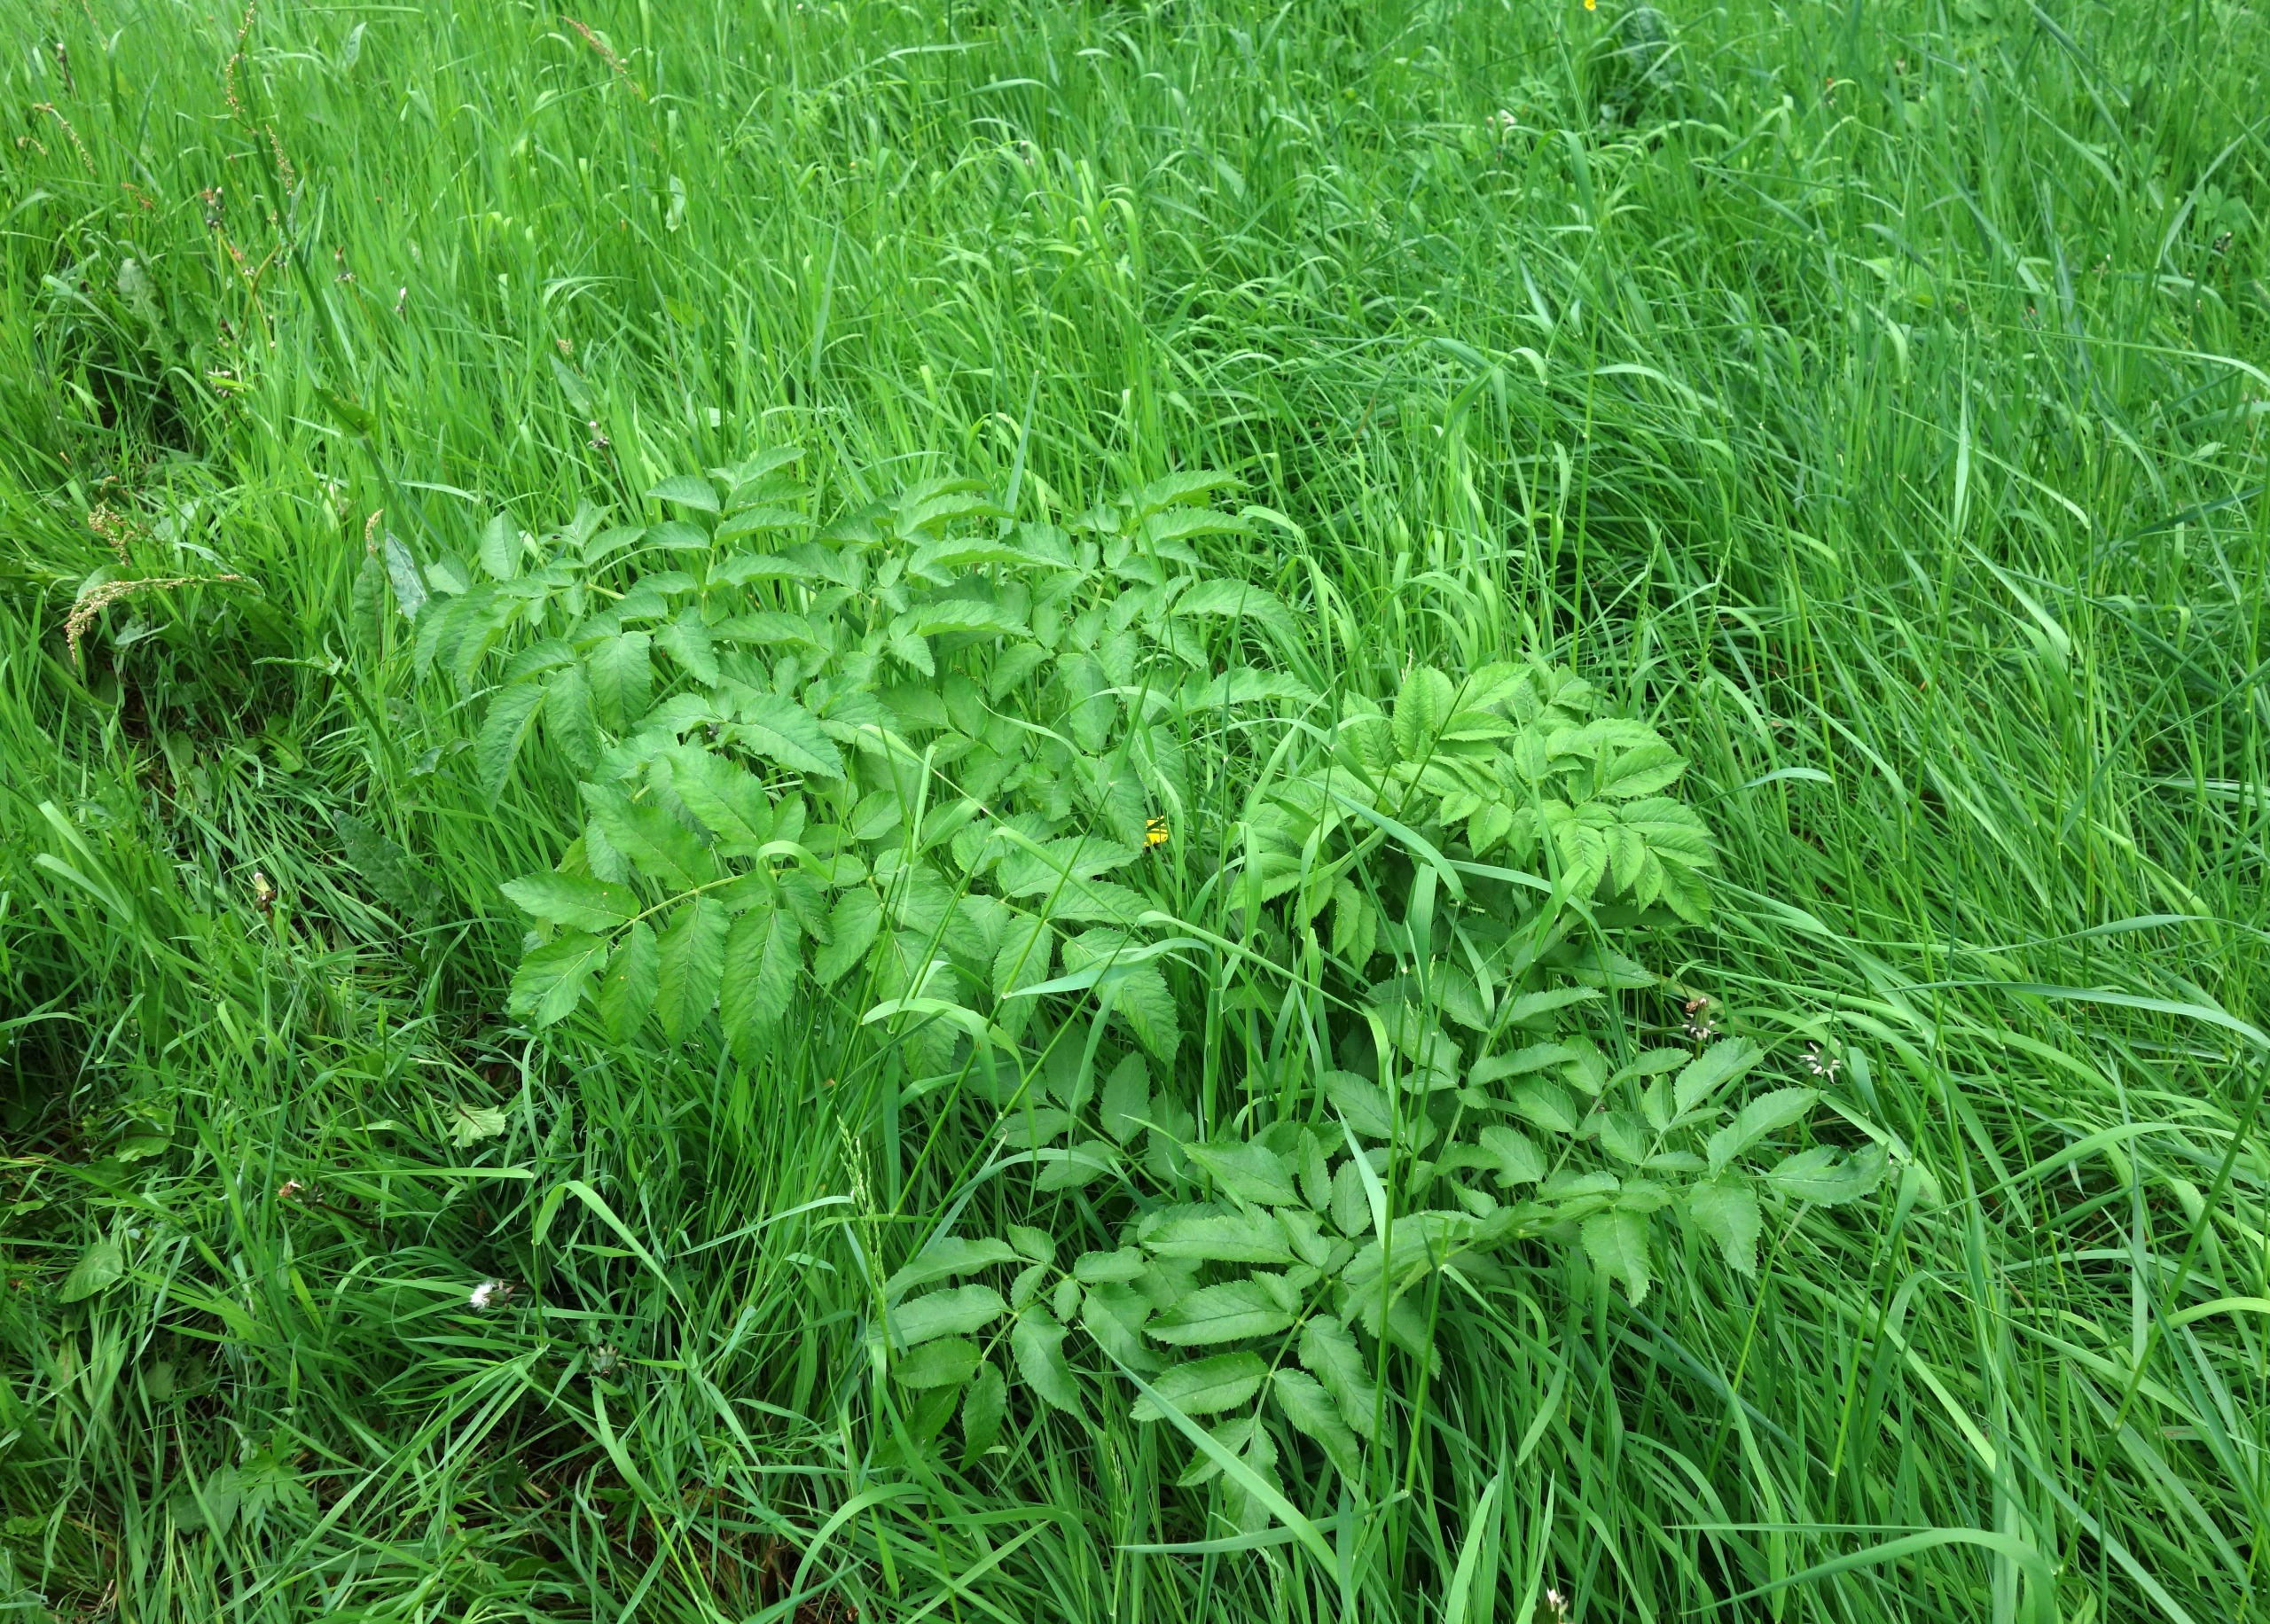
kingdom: Plantae
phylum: Tracheophyta
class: Magnoliopsida
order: Apiales
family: Apiaceae
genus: Angelica
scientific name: Angelica sylvestris
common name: Angelik
